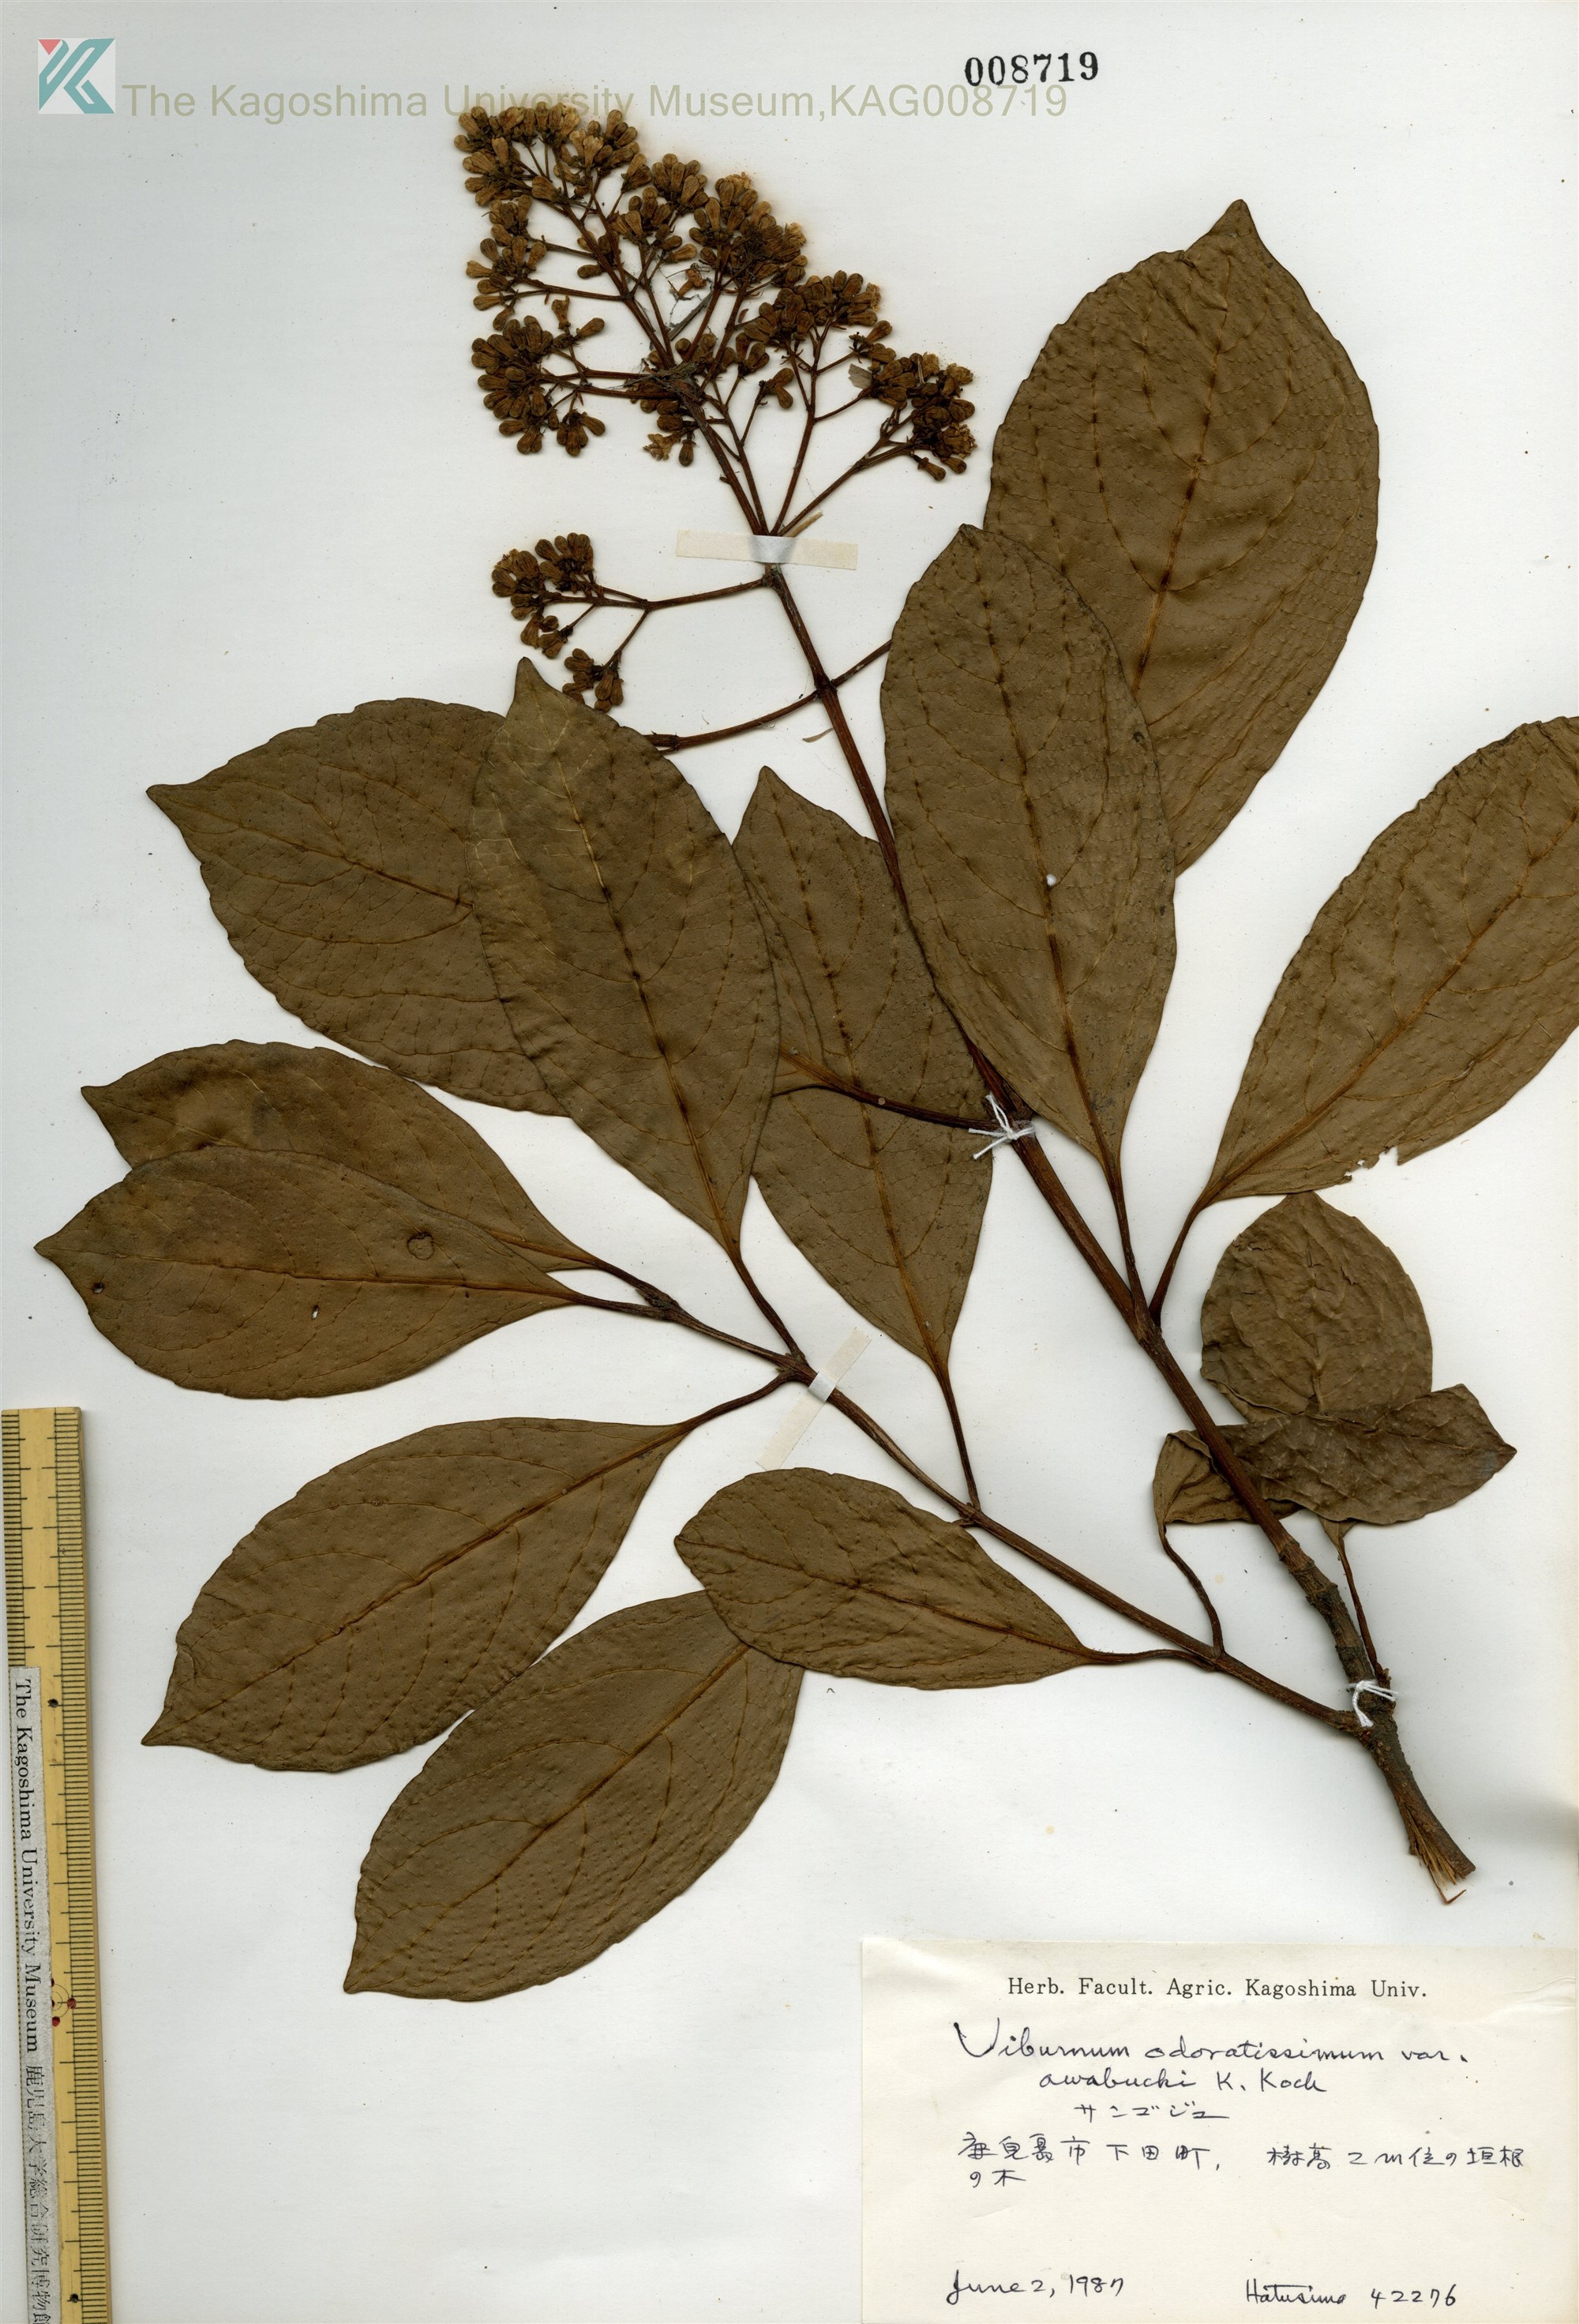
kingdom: Plantae
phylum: Tracheophyta
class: Magnoliopsida
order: Dipsacales
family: Viburnaceae
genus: Viburnum
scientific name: Viburnum odoratissimum
